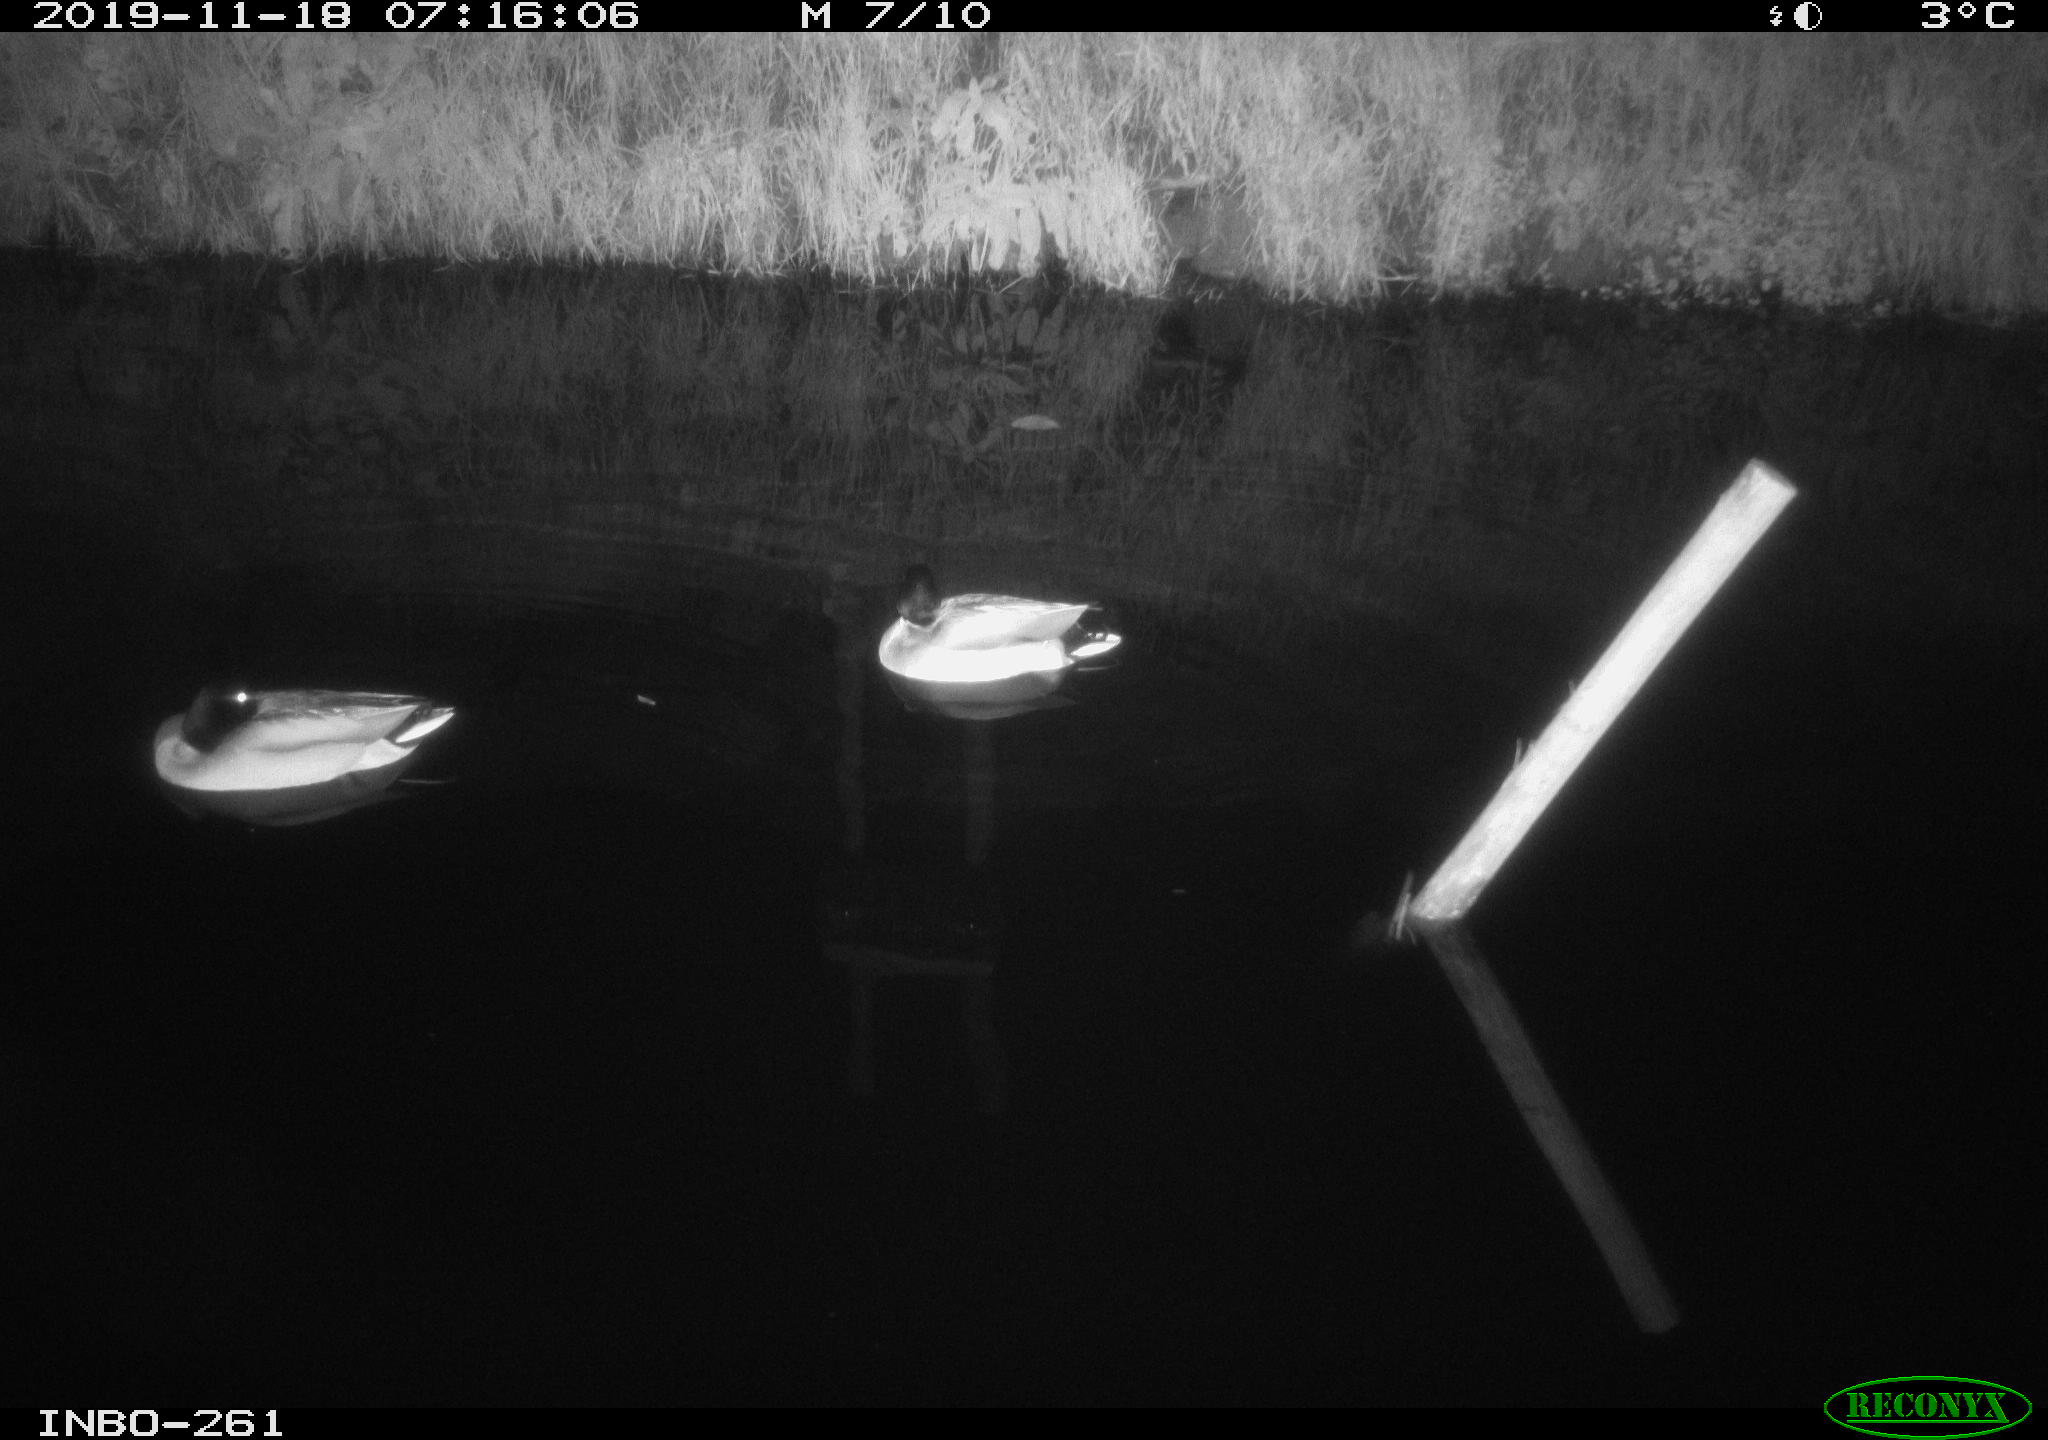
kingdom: Animalia
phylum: Chordata
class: Aves
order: Anseriformes
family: Anatidae
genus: Anas
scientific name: Anas platyrhynchos
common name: Mallard
